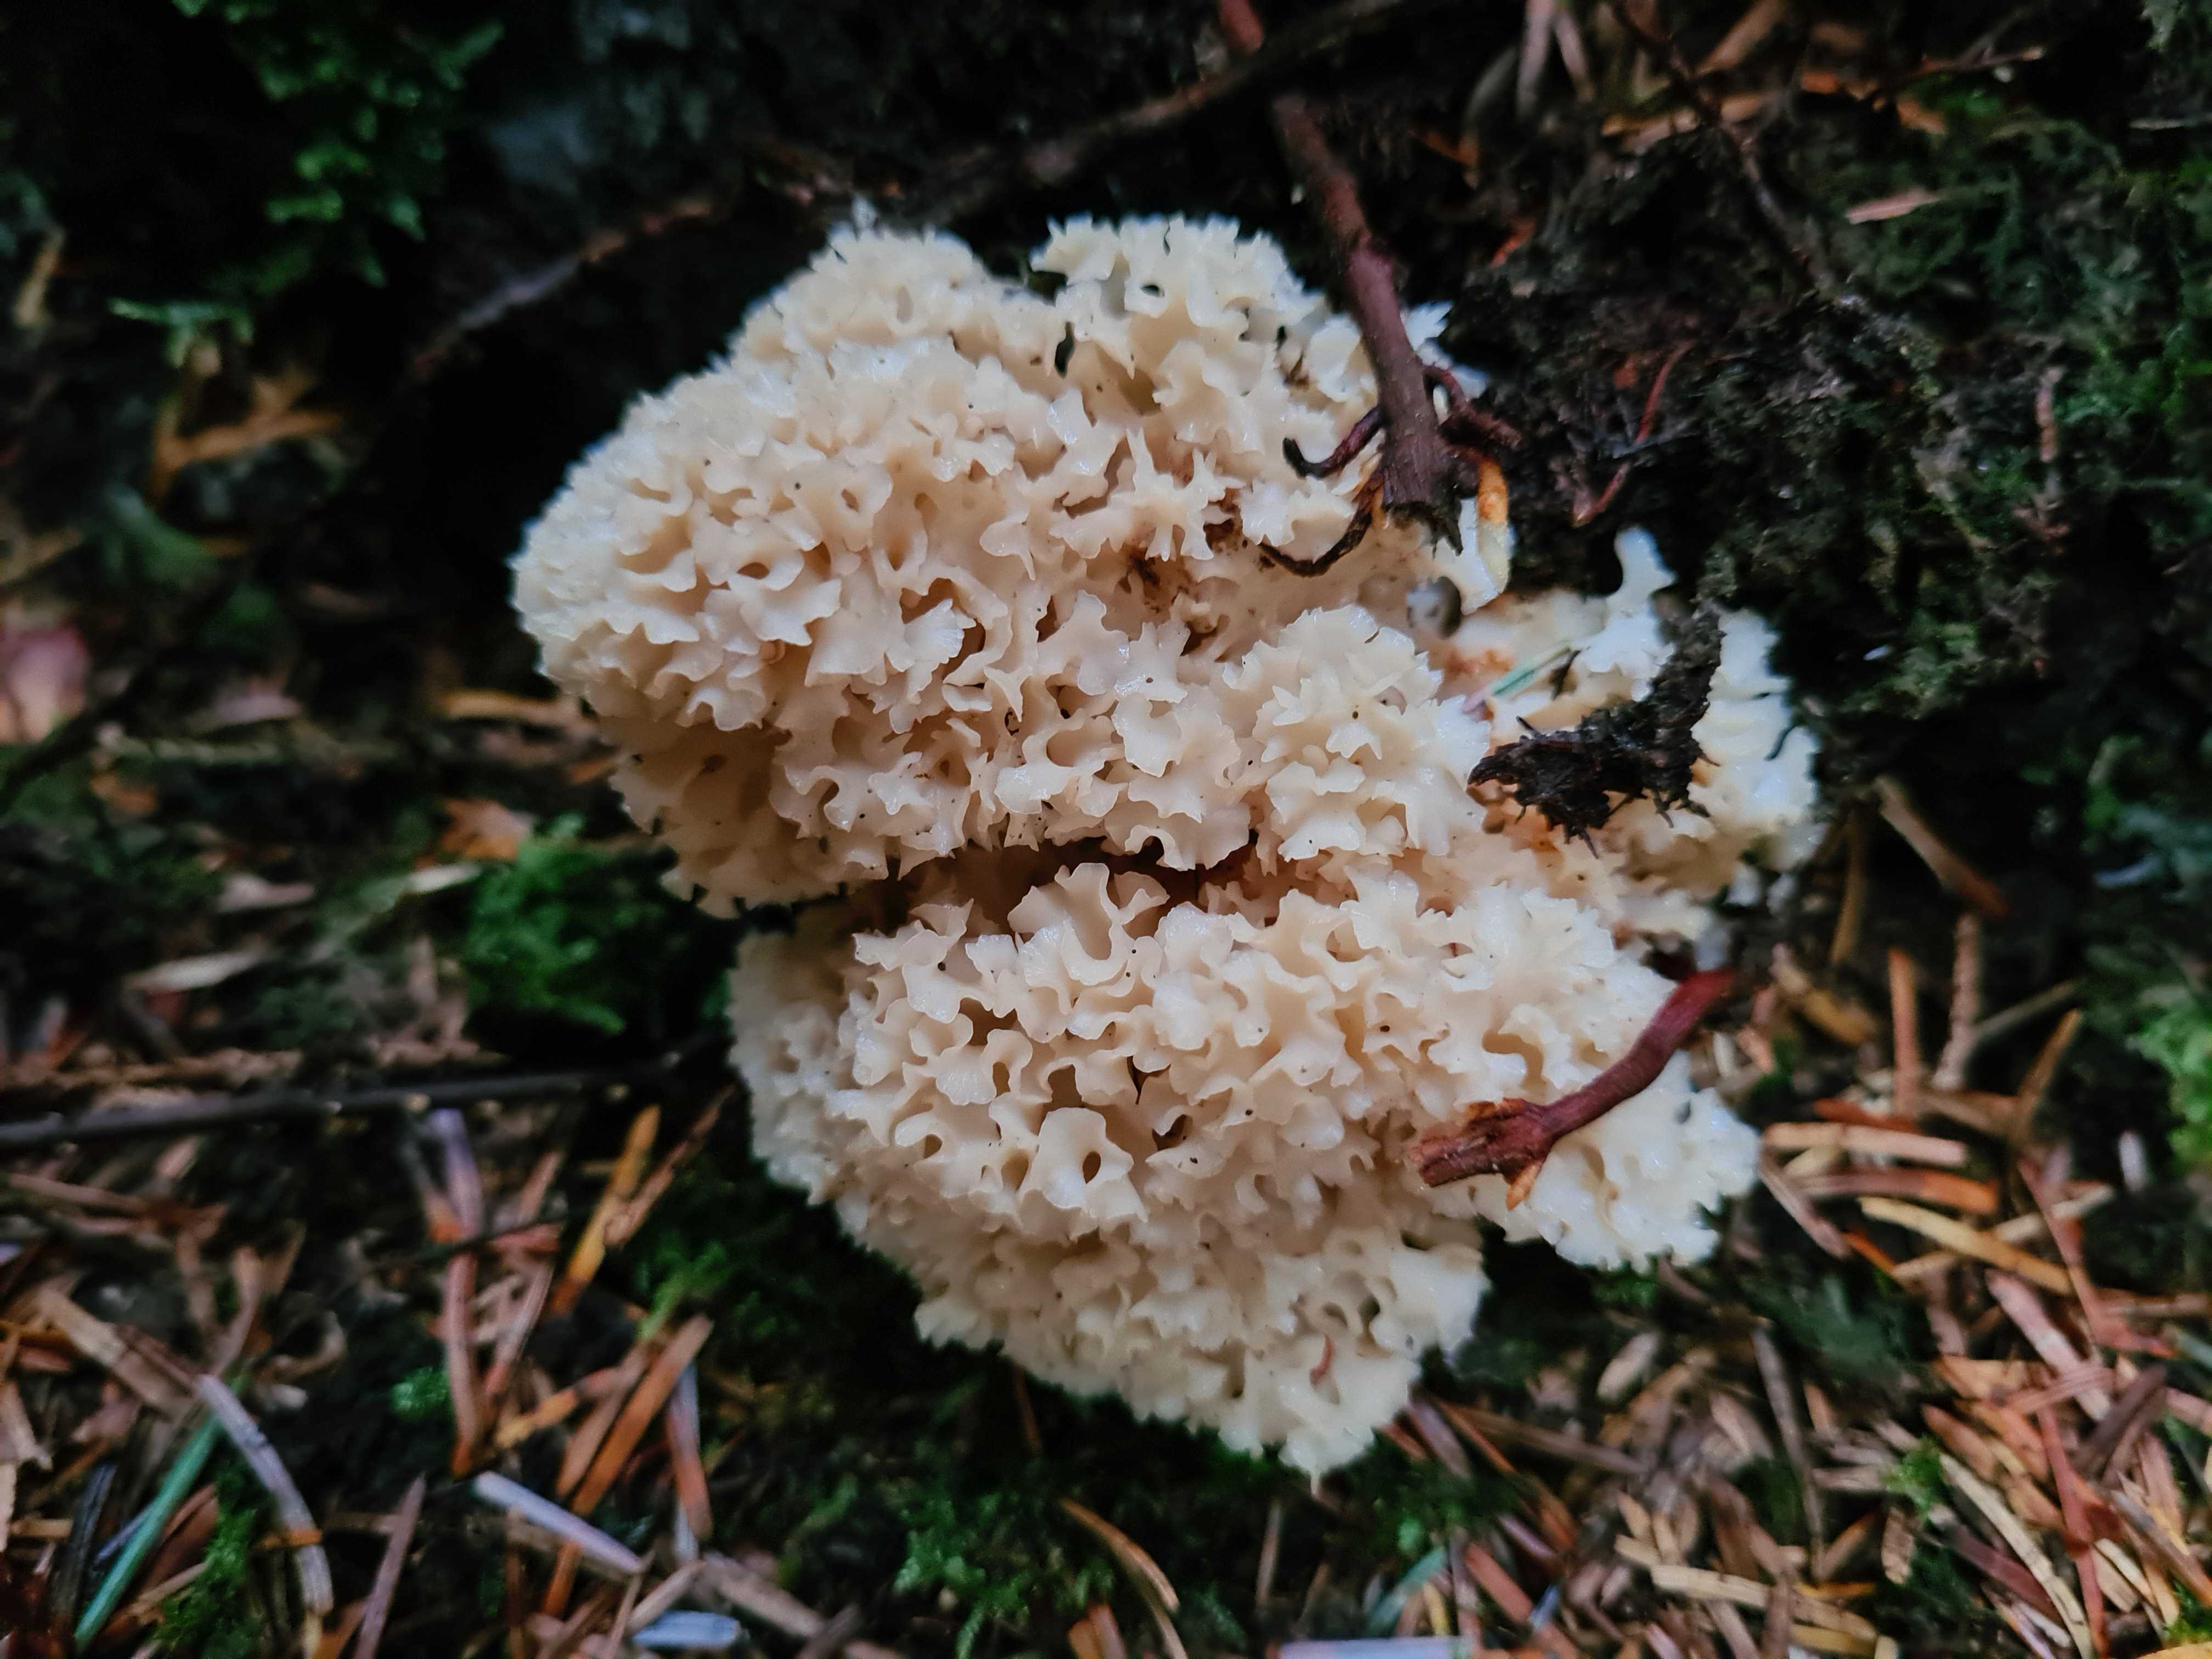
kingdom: Fungi
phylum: Basidiomycota
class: Agaricomycetes
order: Polyporales
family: Sparassidaceae
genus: Sparassis
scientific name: Sparassis crispa
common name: kruset blomkålssvamp
